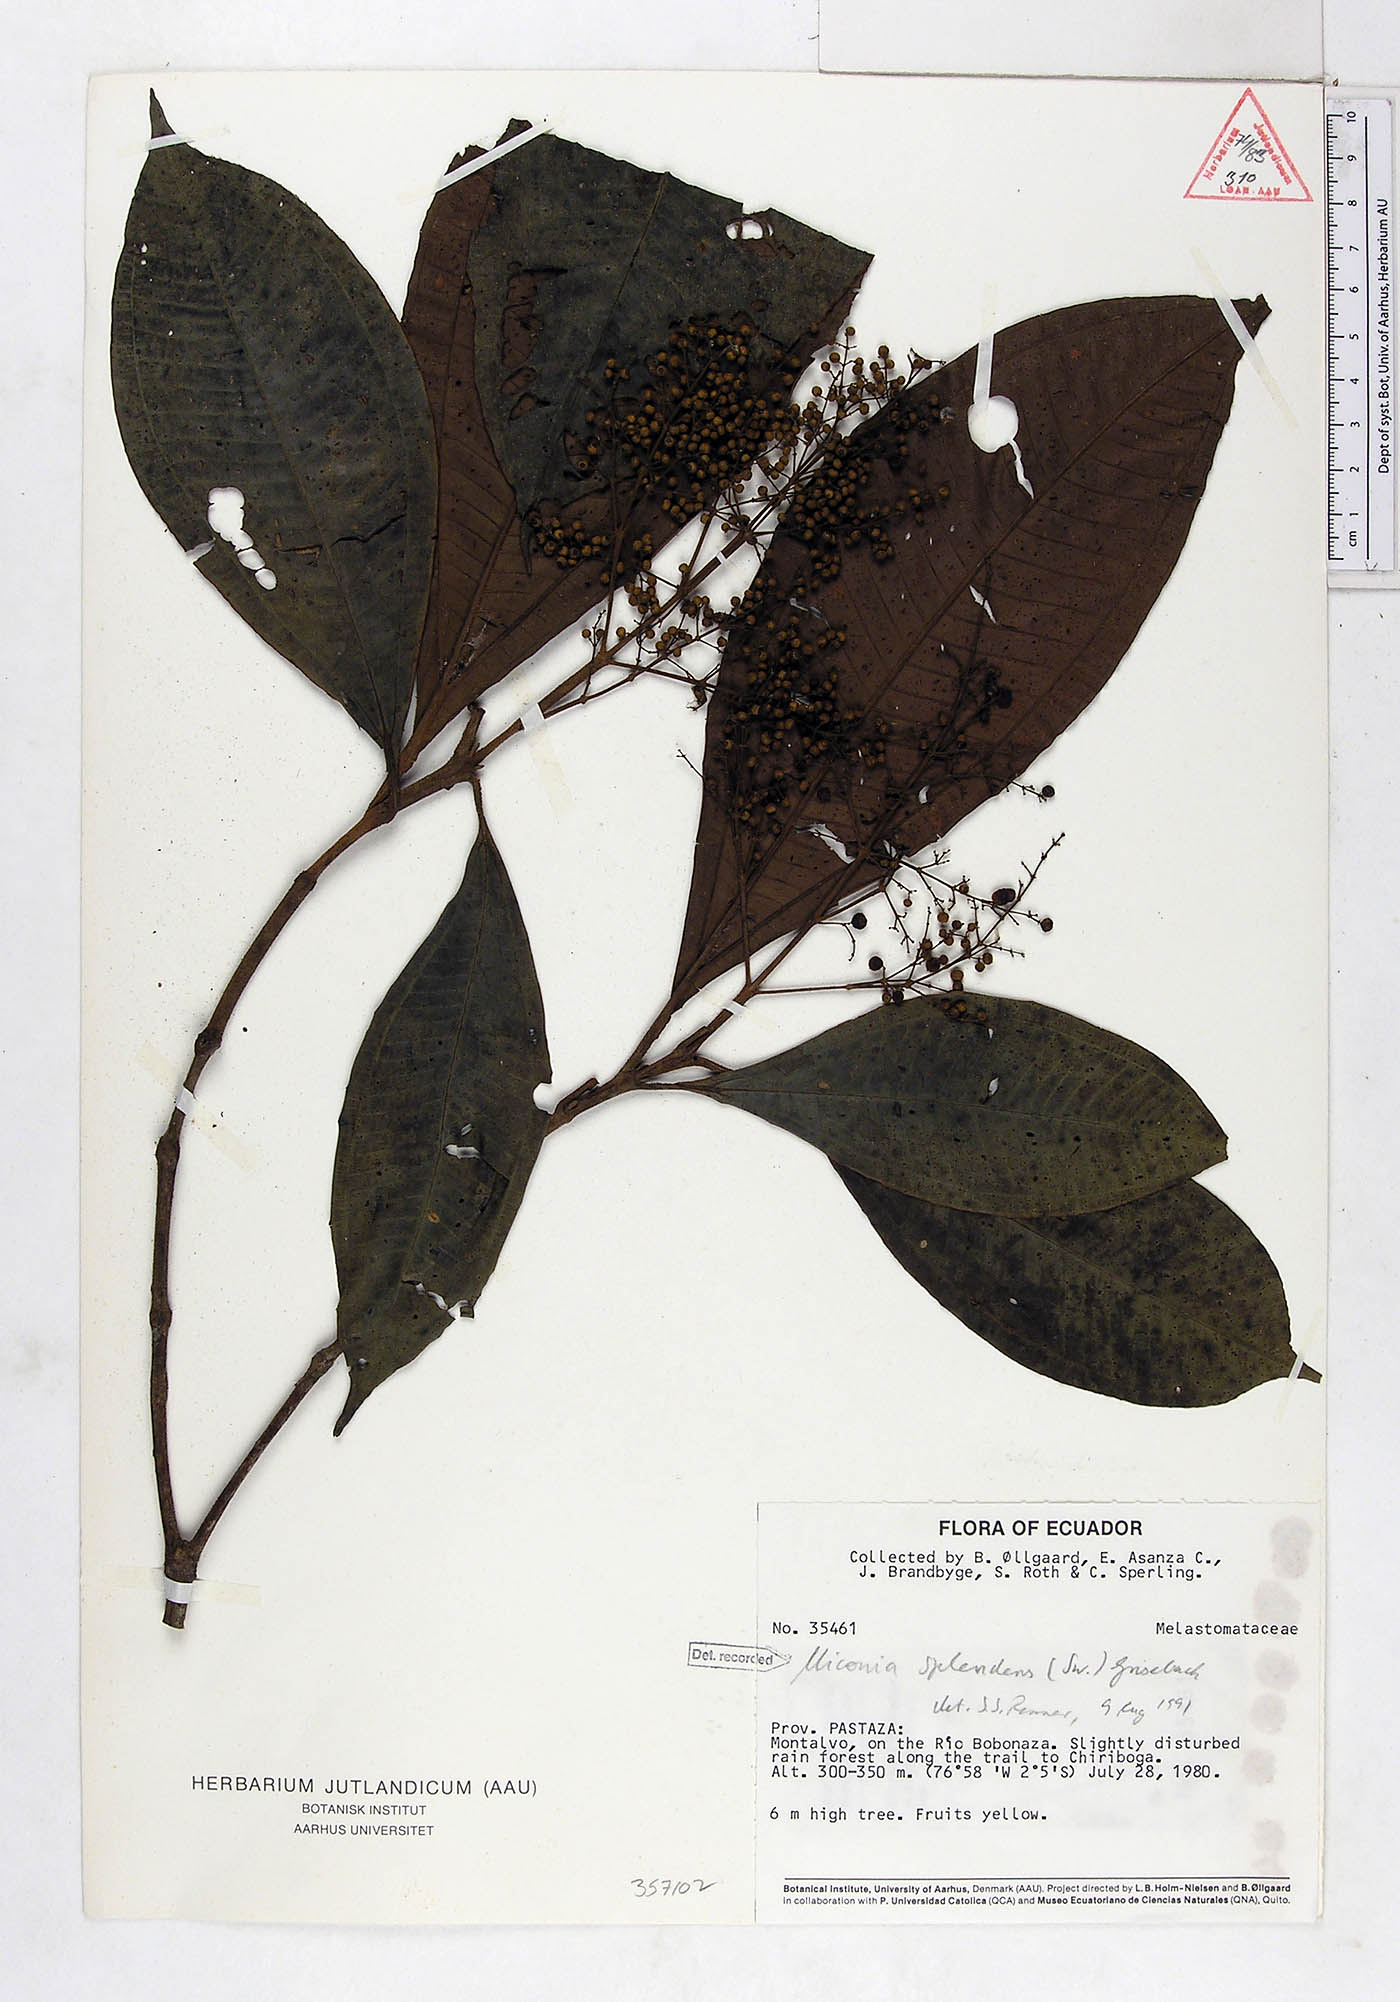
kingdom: Plantae
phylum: Tracheophyta
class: Magnoliopsida
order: Myrtales
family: Melastomataceae
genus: Miconia
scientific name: Miconia splendens
